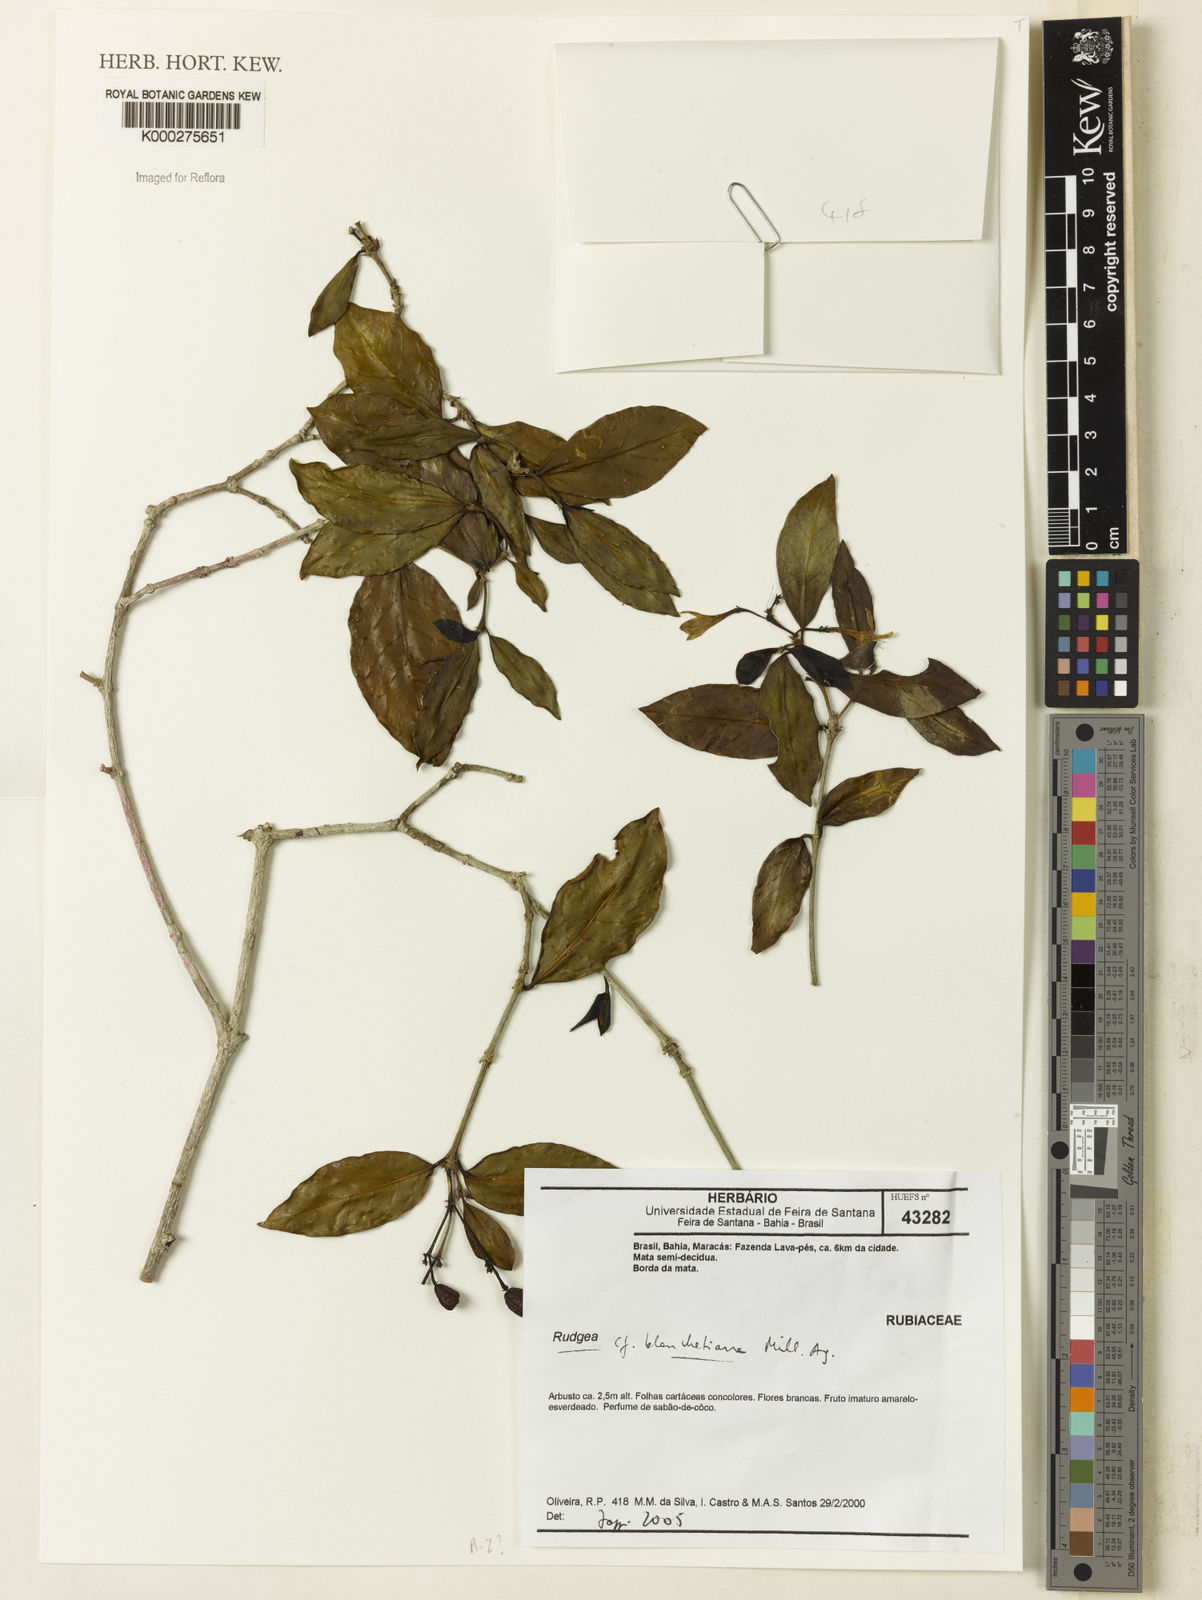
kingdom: Plantae
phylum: Tracheophyta
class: Magnoliopsida
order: Gentianales
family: Rubiaceae
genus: Rudgea
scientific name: Rudgea blanchetiana
